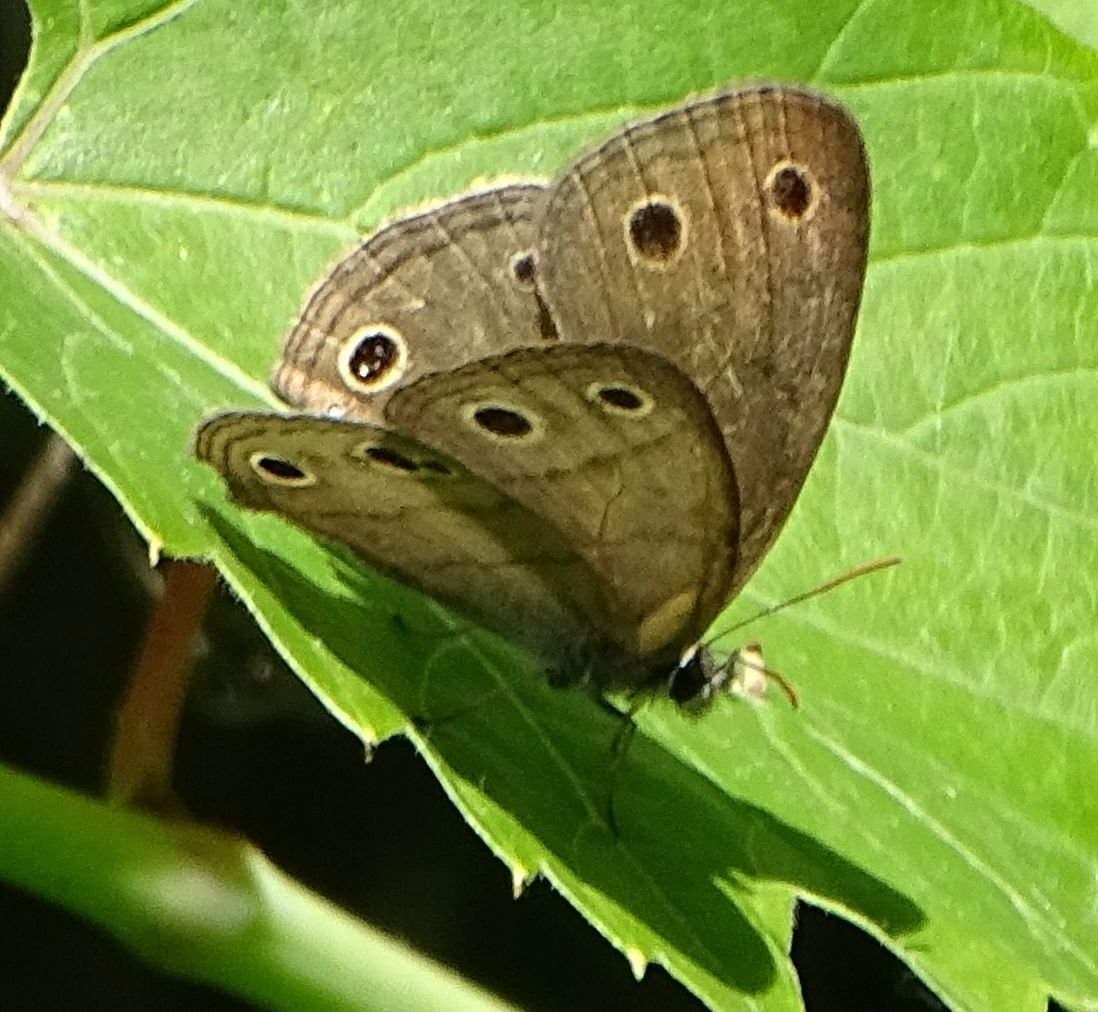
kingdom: Animalia
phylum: Arthropoda
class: Insecta
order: Lepidoptera
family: Nymphalidae
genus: Euptychia
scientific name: Euptychia cymela
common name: Little Wood Satyr
